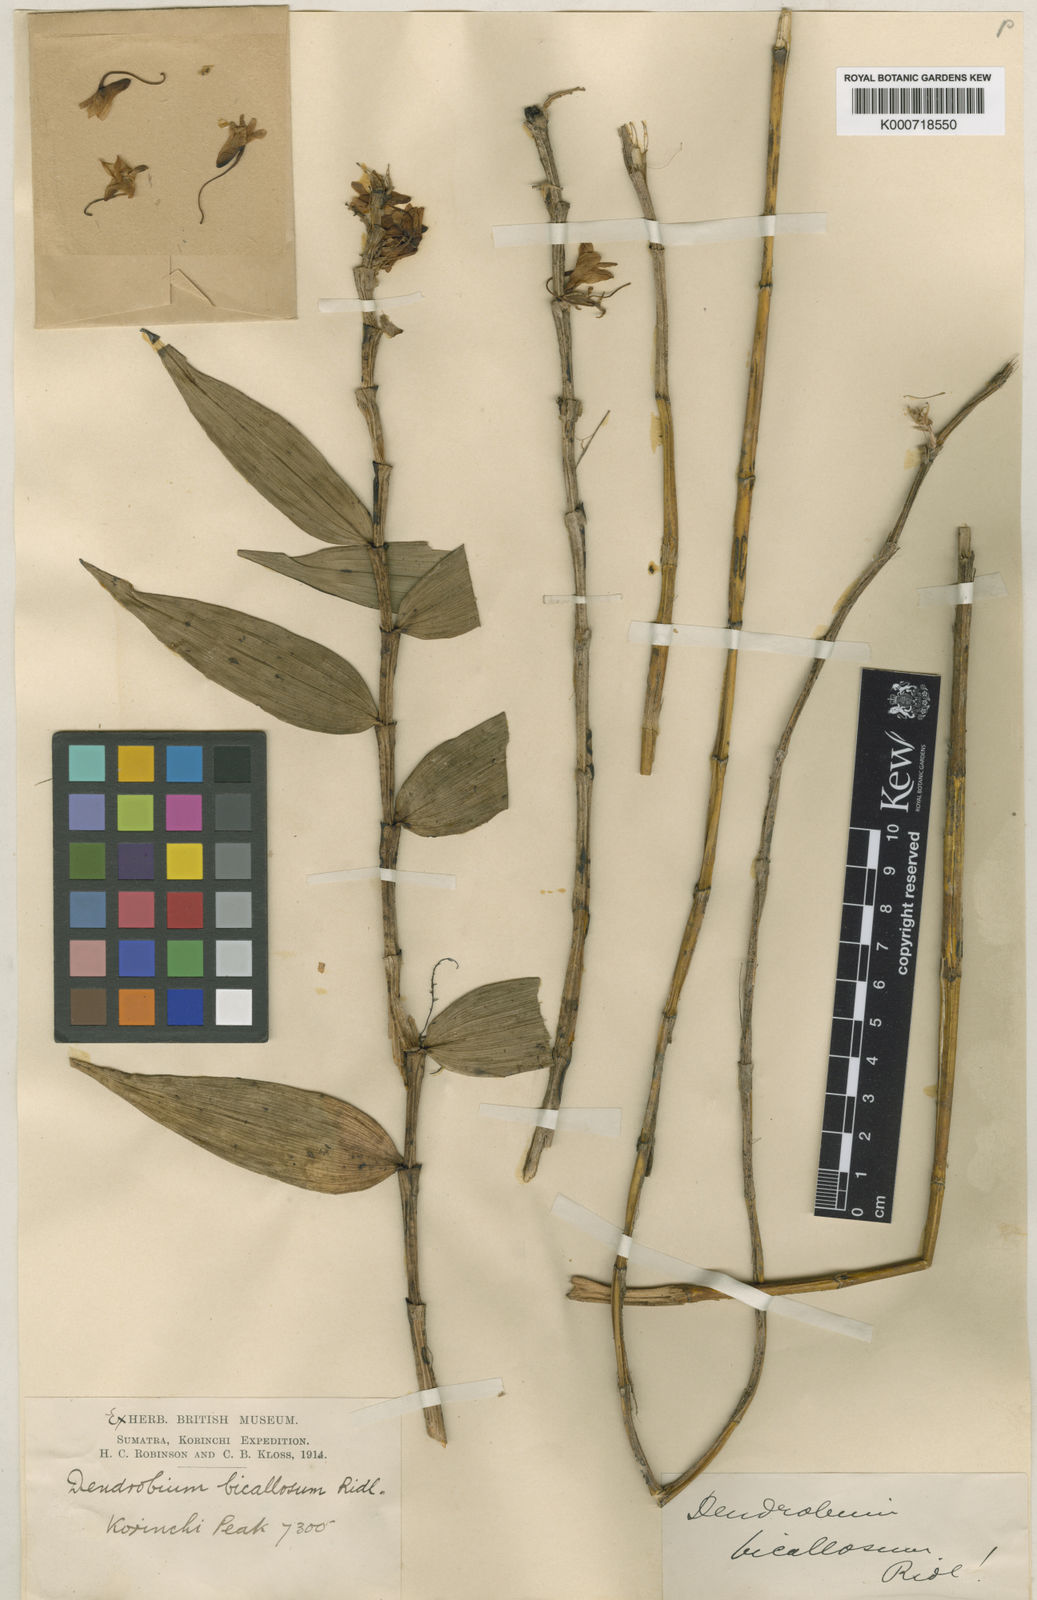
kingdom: Plantae
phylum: Tracheophyta
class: Liliopsida
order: Asparagales
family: Orchidaceae
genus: Dendrobium
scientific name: Dendrobium pedicellatum
